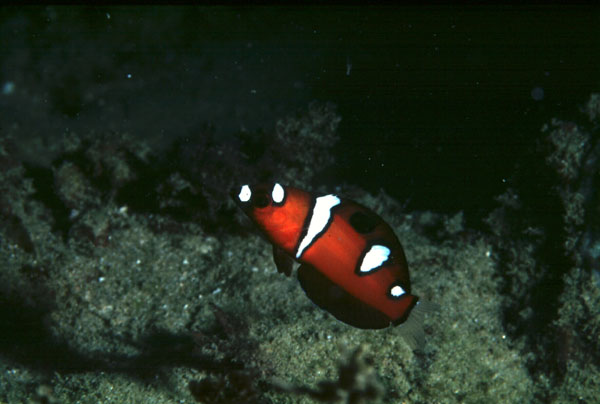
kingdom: Animalia
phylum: Chordata
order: Perciformes
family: Labridae
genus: Coris
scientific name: Coris formosa
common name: Queen coris
